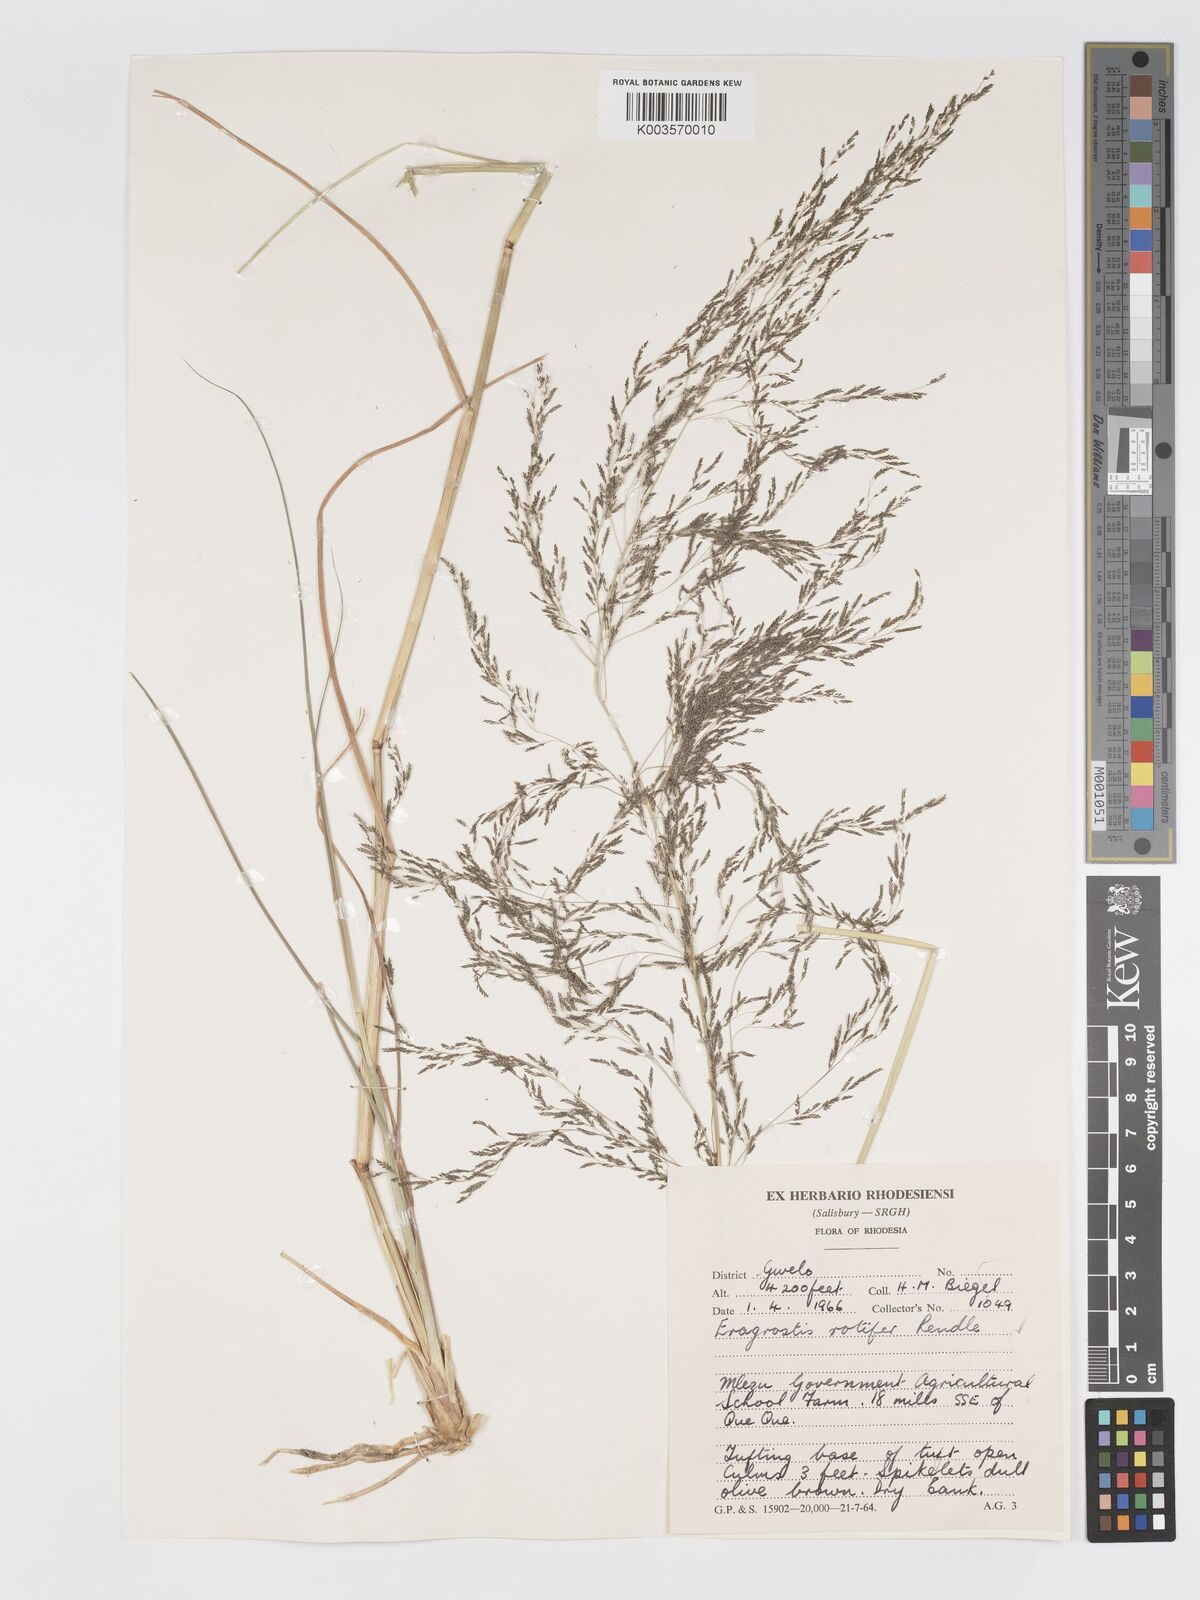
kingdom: Plantae
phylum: Tracheophyta
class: Liliopsida
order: Poales
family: Poaceae
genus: Eragrostis
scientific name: Eragrostis rotifer
